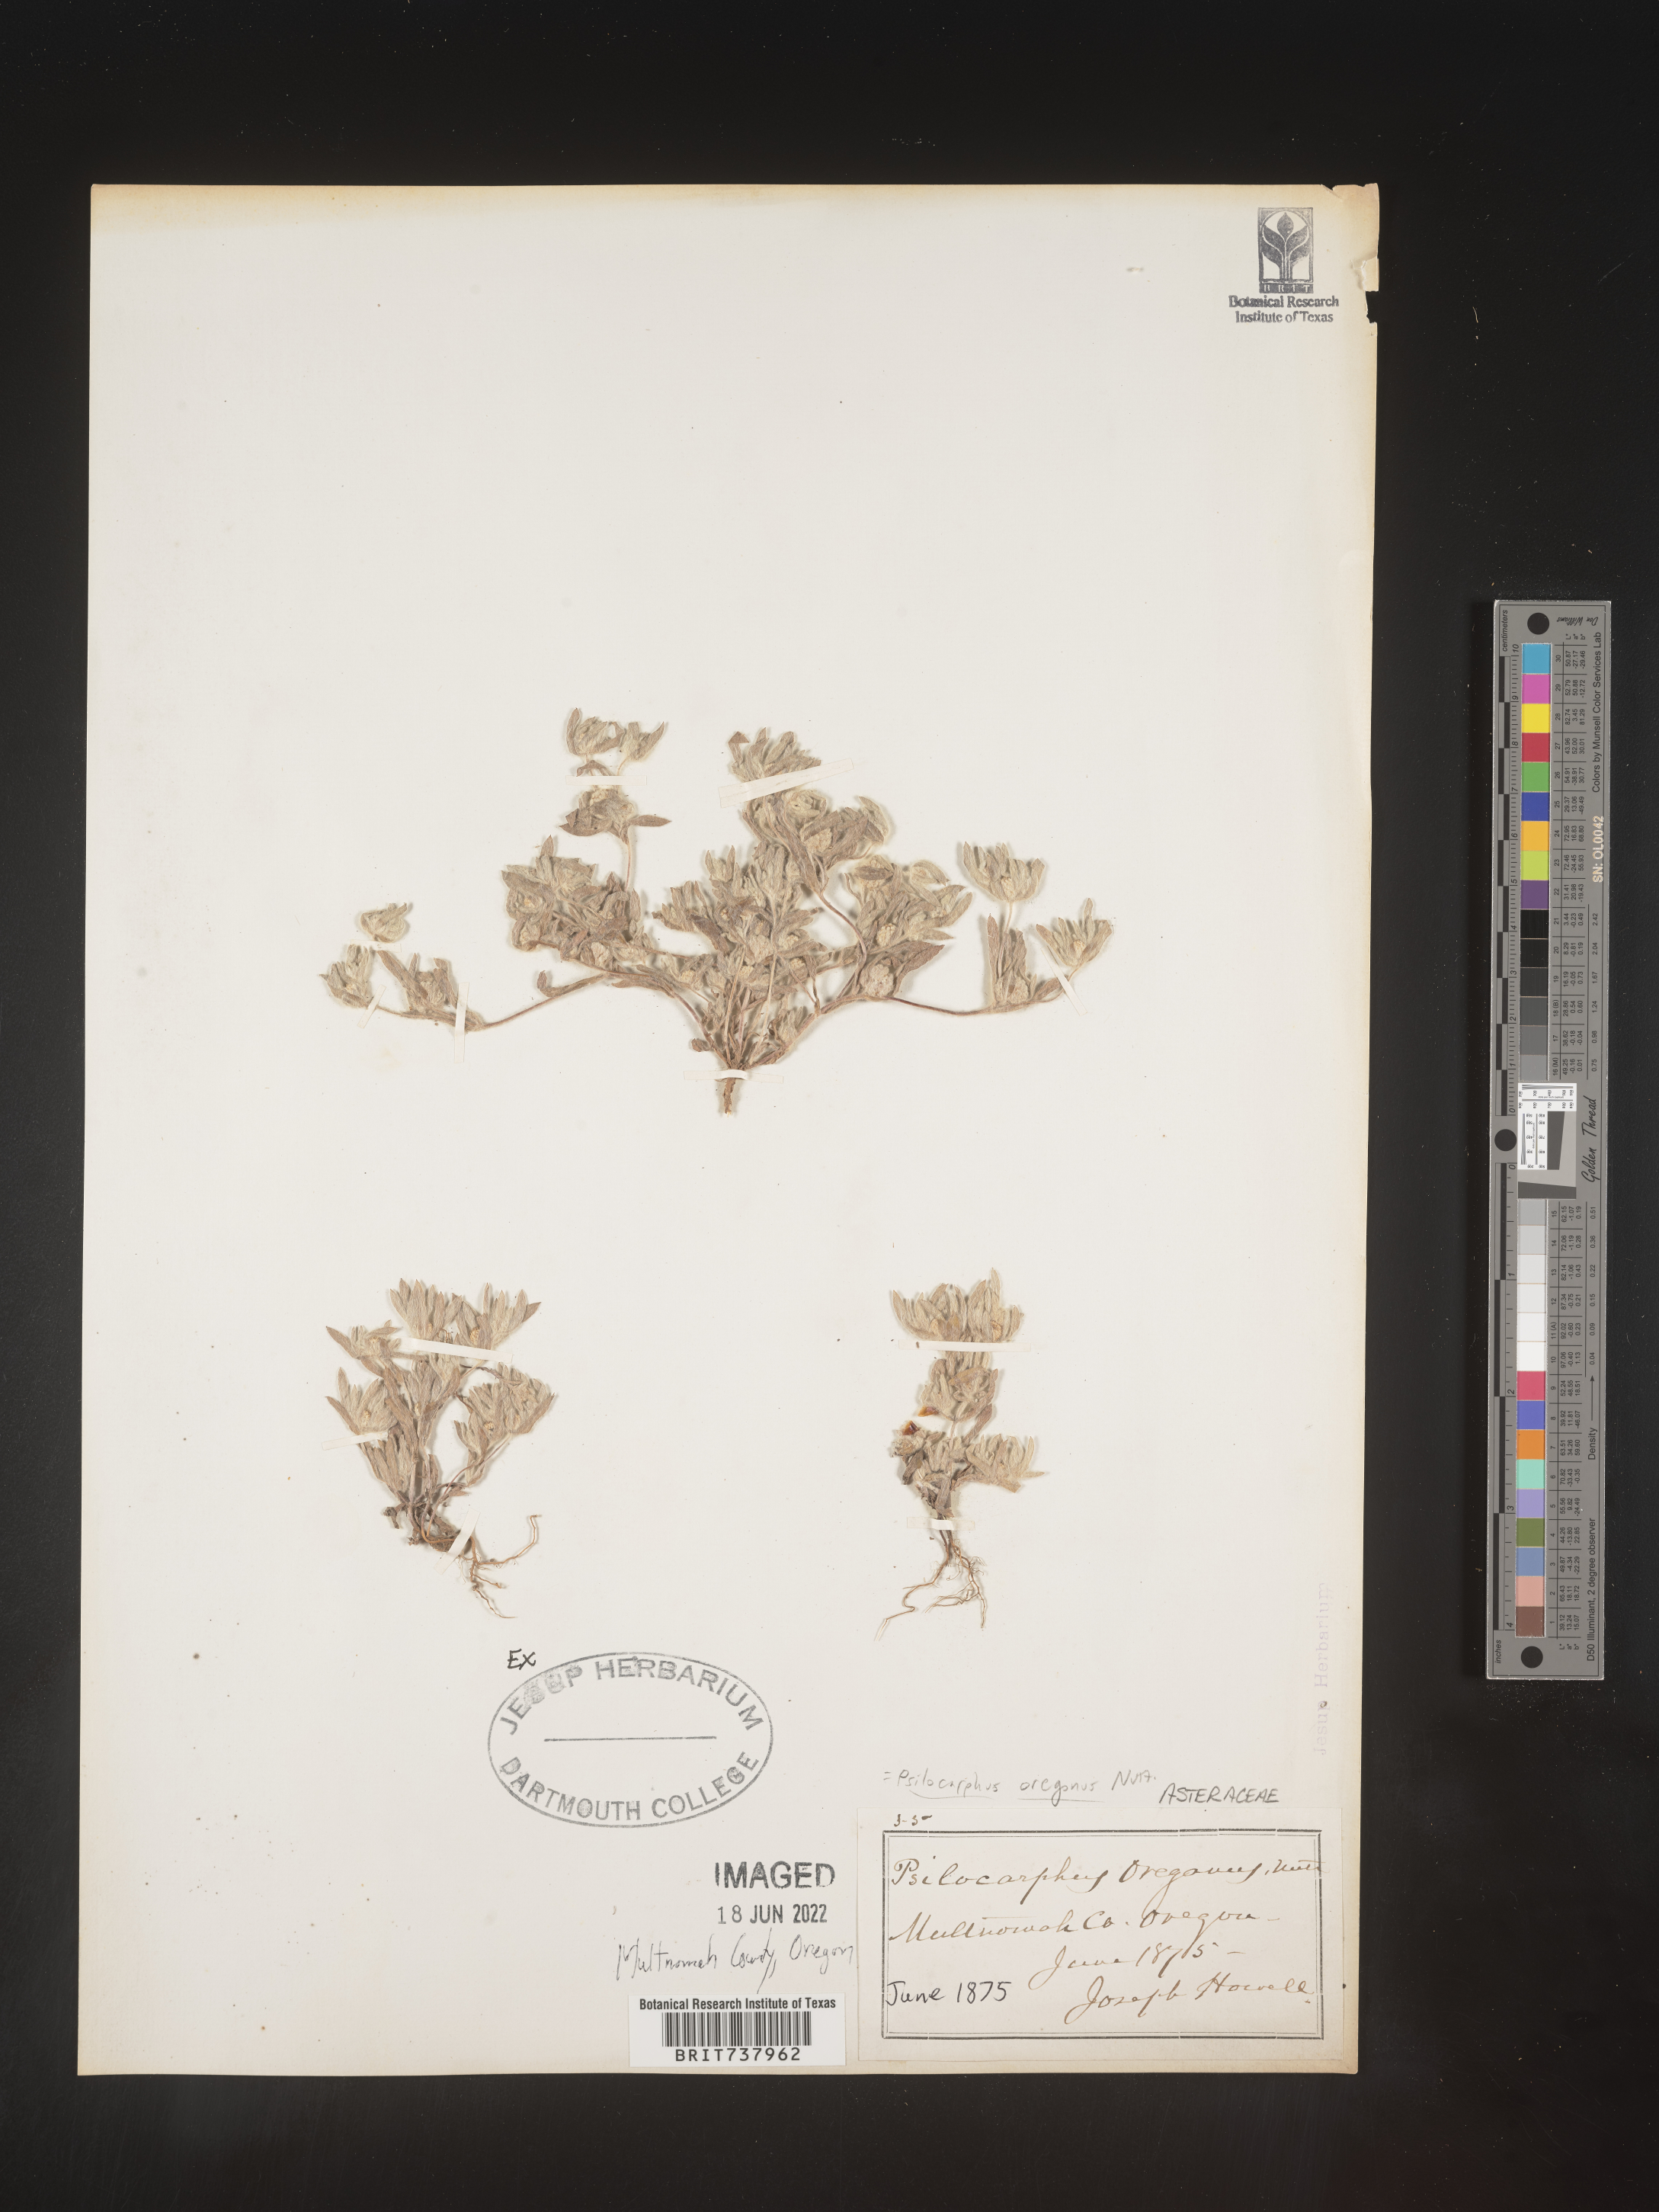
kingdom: Plantae
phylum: Tracheophyta
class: Magnoliopsida
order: Asterales
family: Asteraceae
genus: Psilocarphus
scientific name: Psilocarphus
